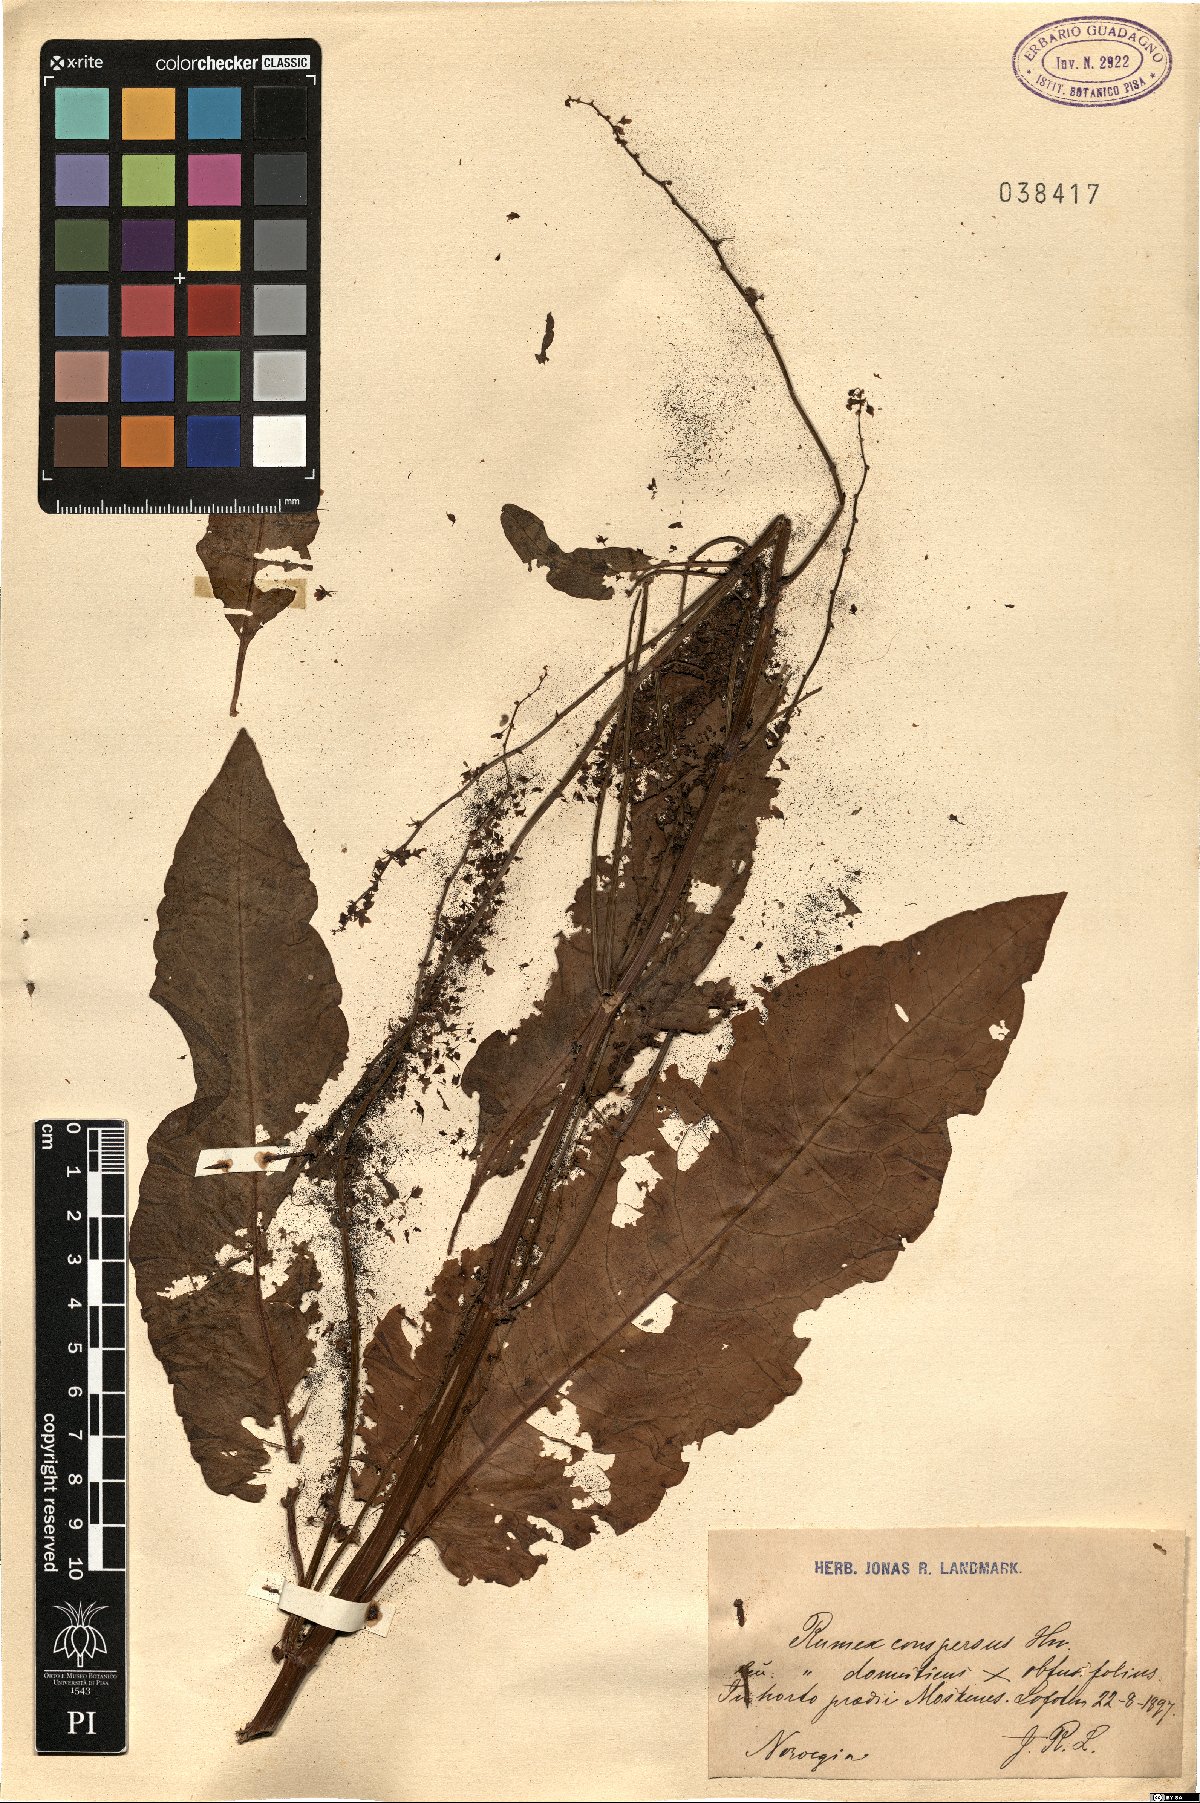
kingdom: Plantae
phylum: Tracheophyta
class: Magnoliopsida
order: Caryophyllales
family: Polygonaceae
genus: Rumex
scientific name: Rumex conspersus
